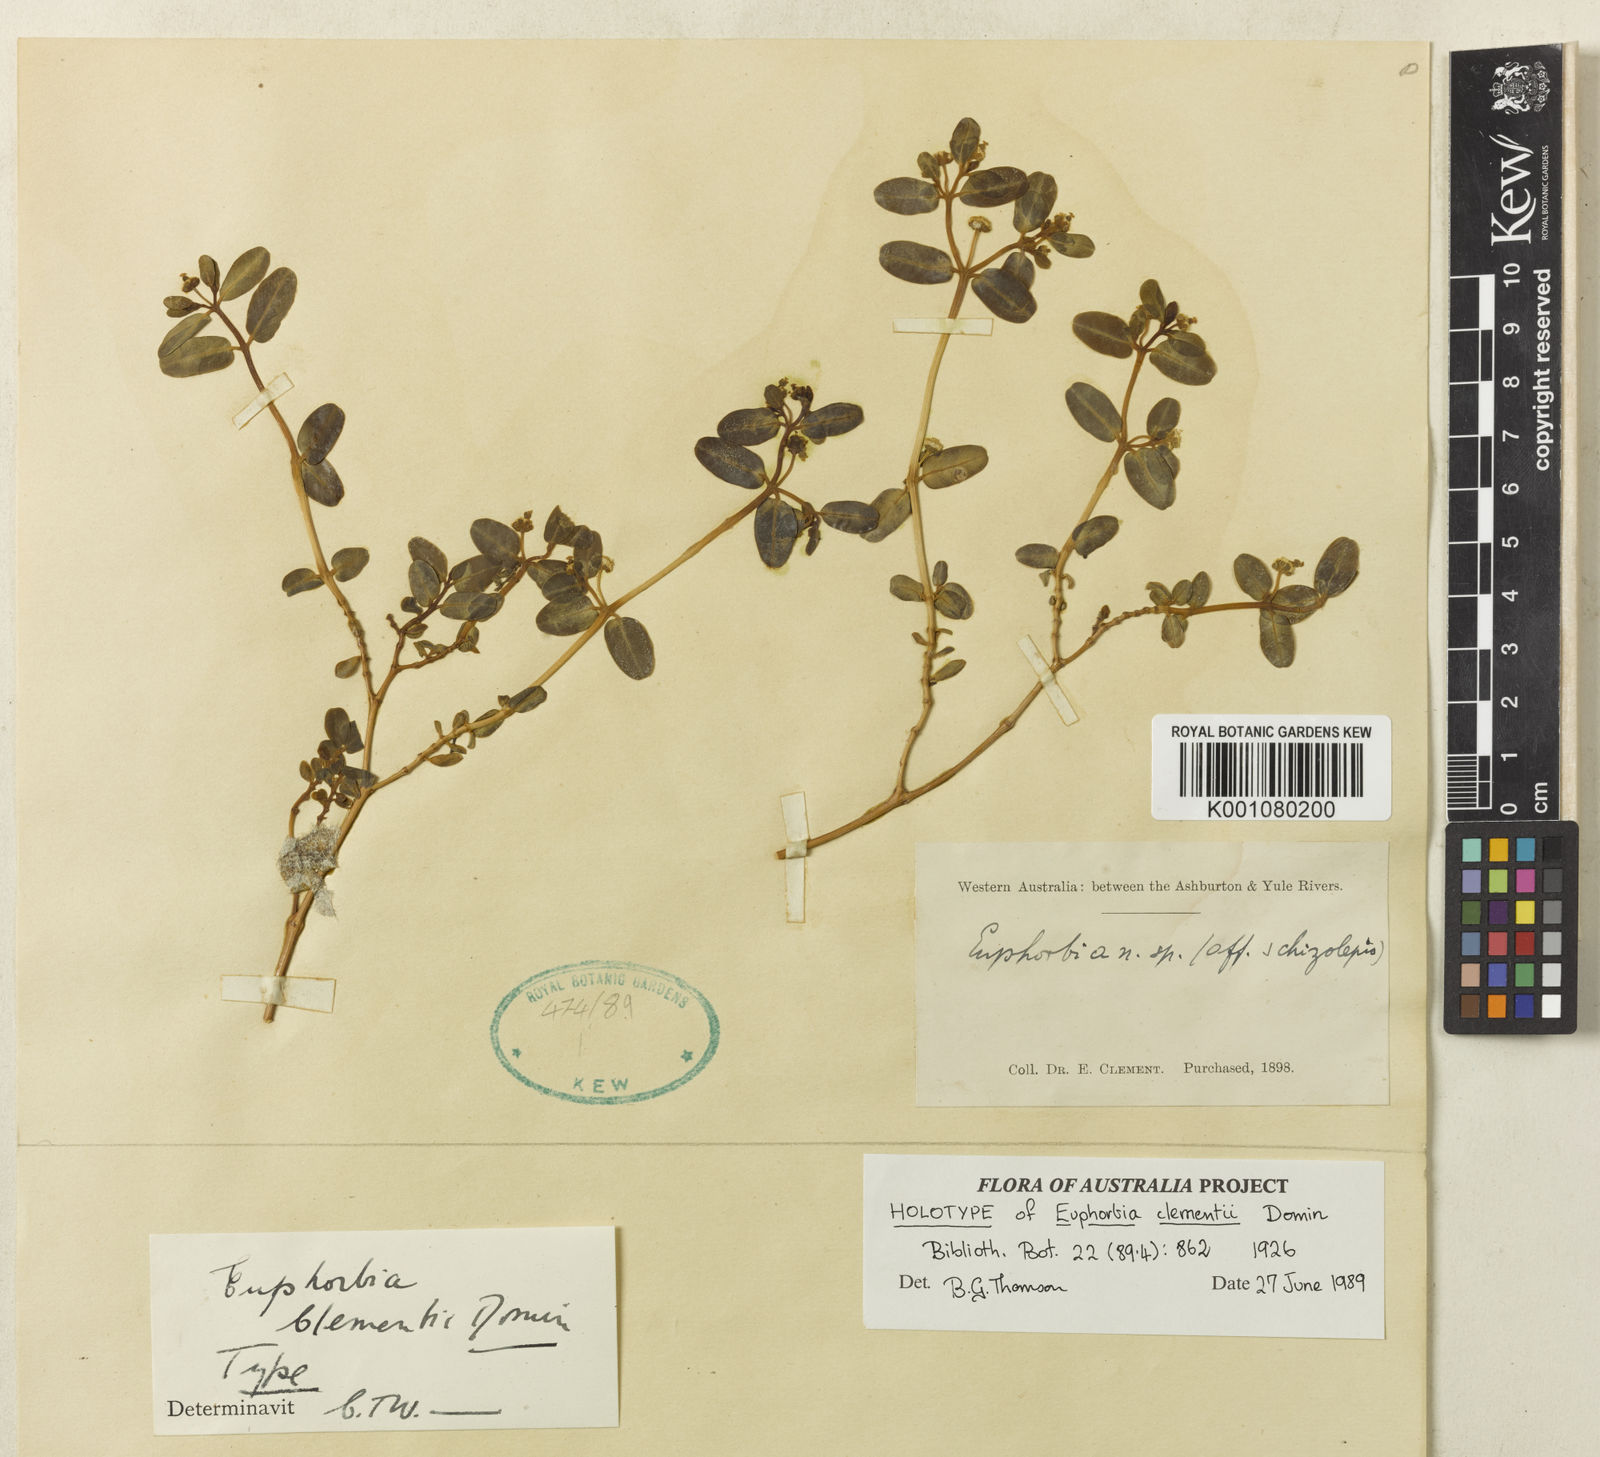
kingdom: Plantae
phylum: Tracheophyta
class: Magnoliopsida
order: Malpighiales
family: Euphorbiaceae
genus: Euphorbia
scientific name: Euphorbia occidentaustralica
